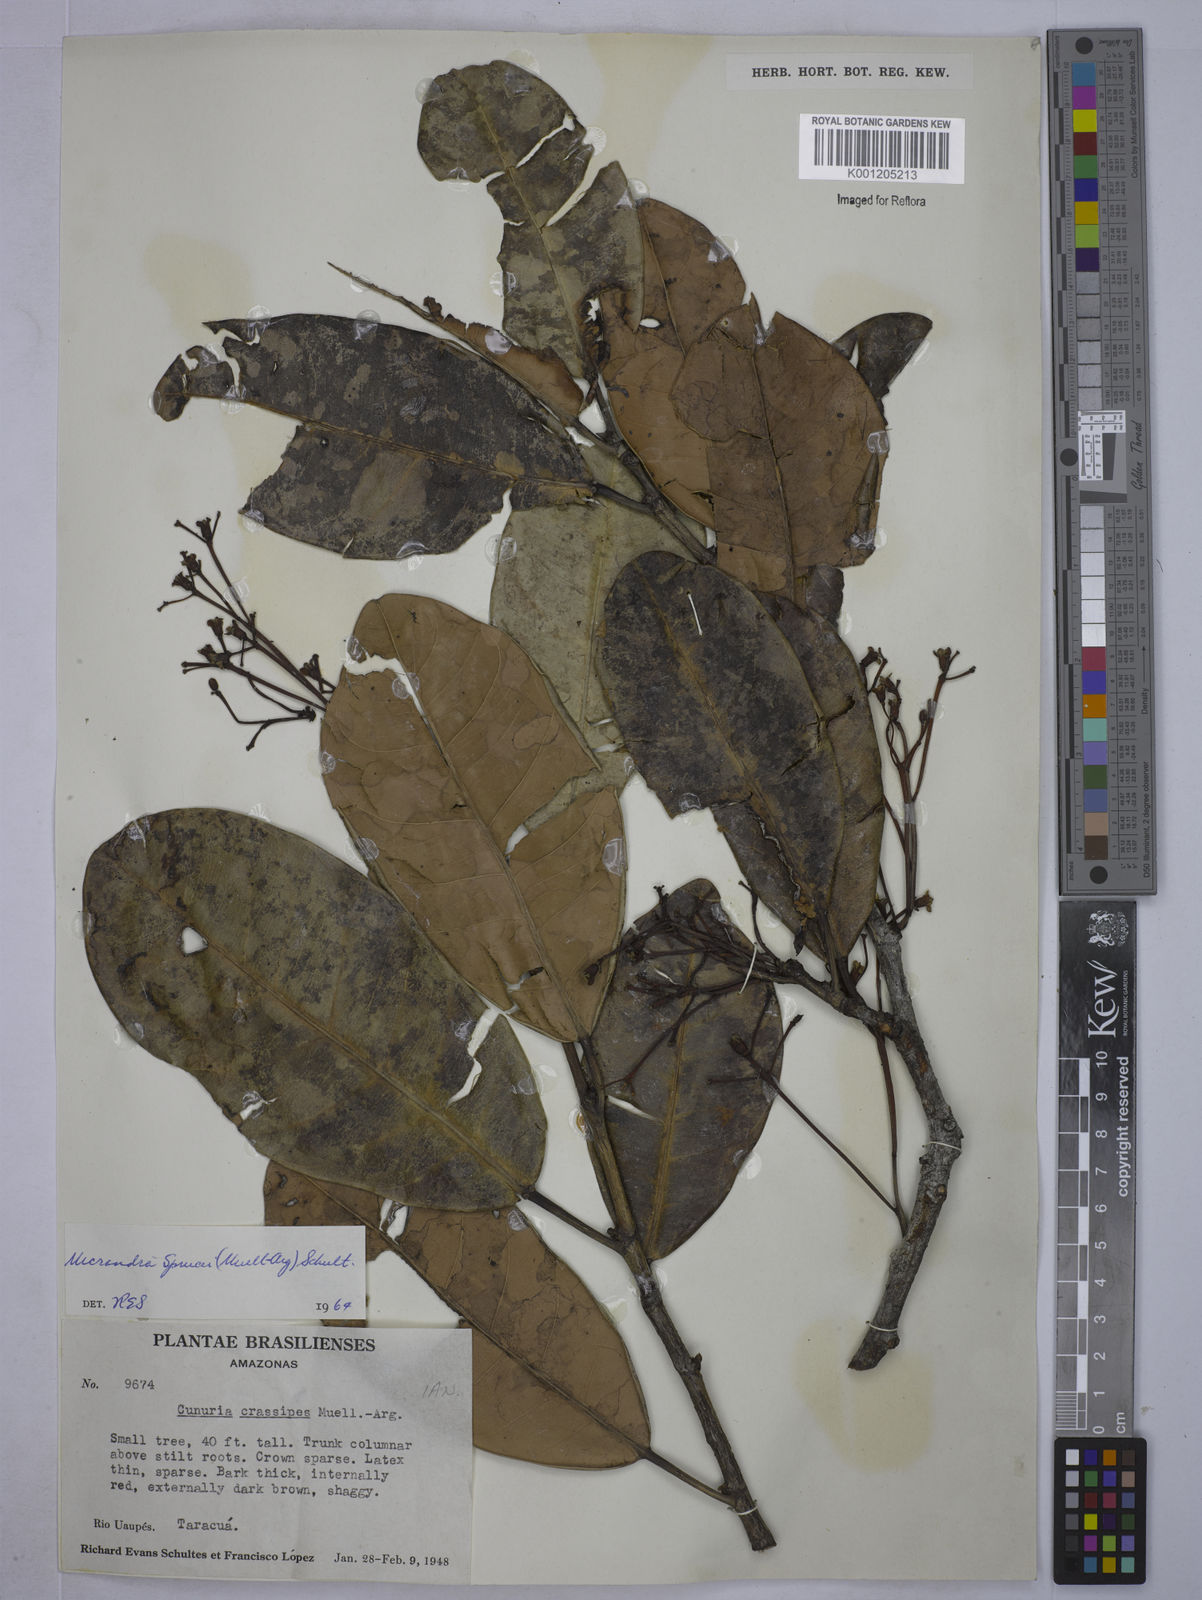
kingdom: Plantae
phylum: Tracheophyta
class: Magnoliopsida
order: Malpighiales
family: Euphorbiaceae
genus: Micrandra
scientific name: Micrandra
